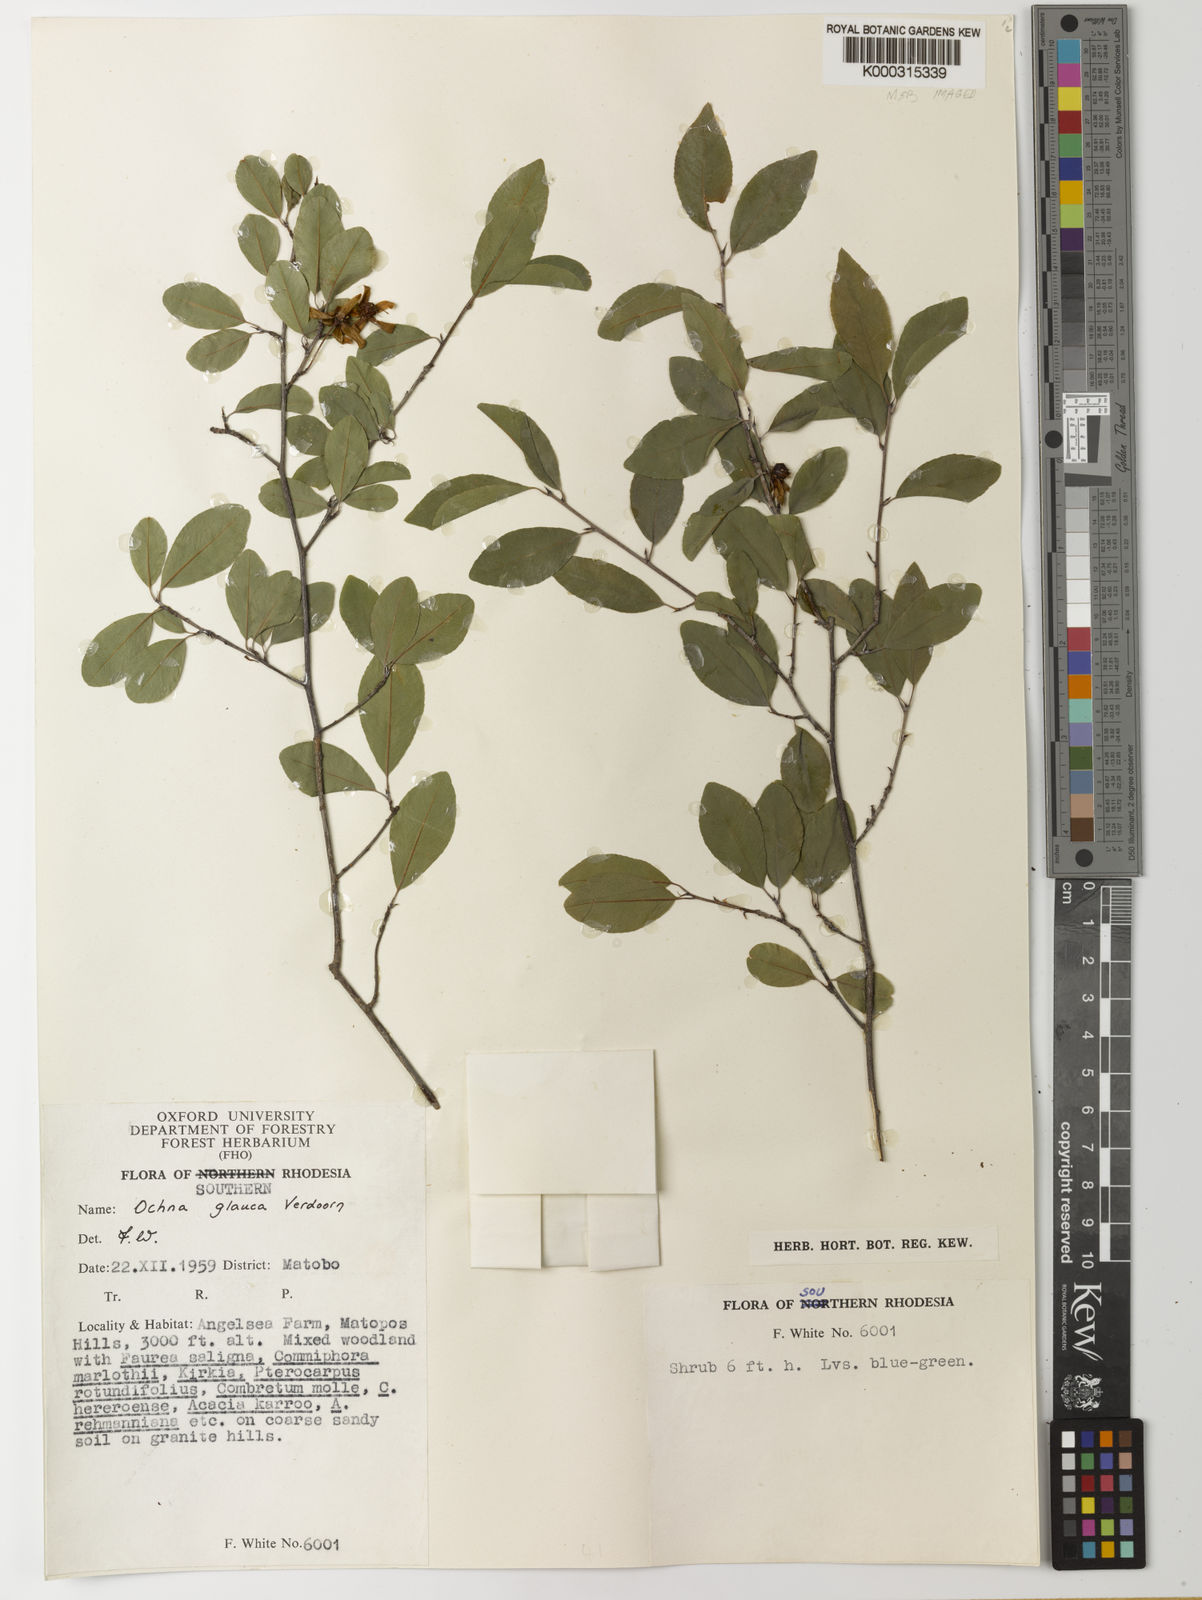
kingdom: Plantae
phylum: Tracheophyta
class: Magnoliopsida
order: Malpighiales
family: Ochnaceae
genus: Ochna
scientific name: Ochna glauca
